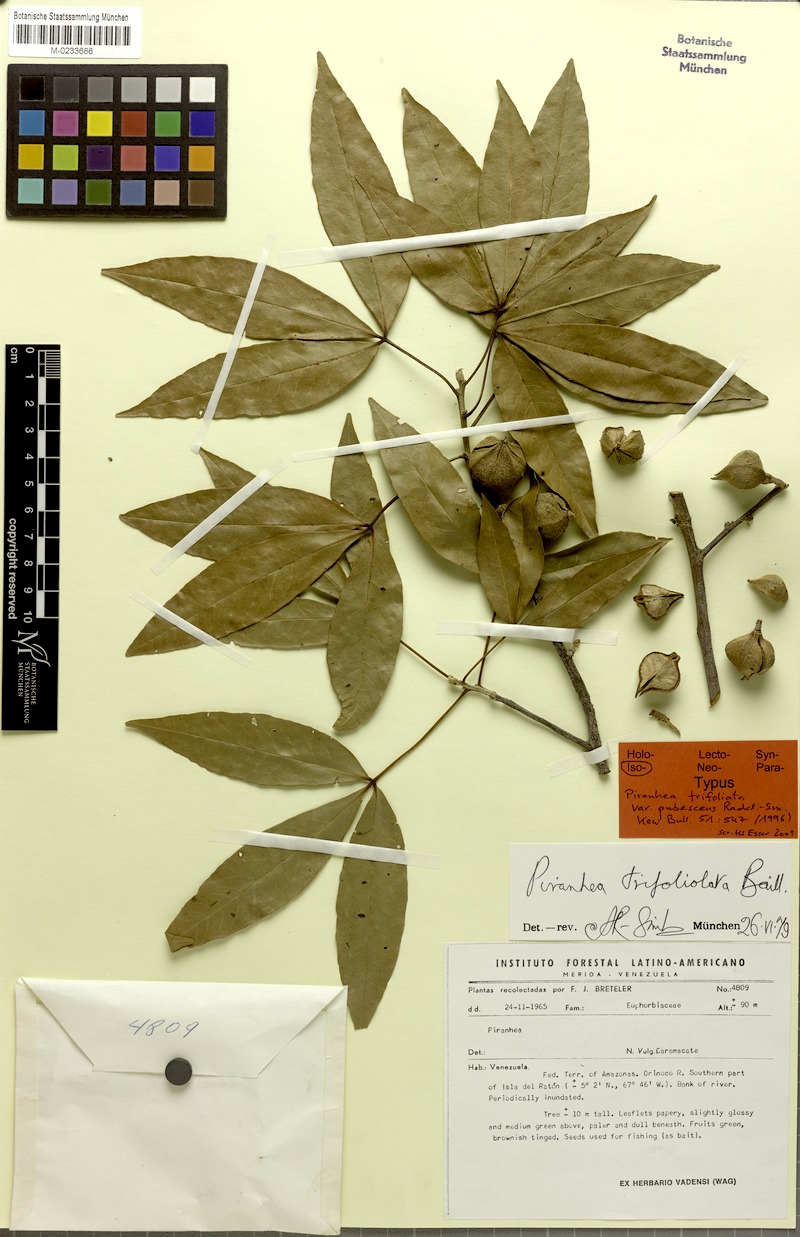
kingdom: Plantae
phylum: Tracheophyta
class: Magnoliopsida
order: Malpighiales
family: Picrodendraceae
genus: Piranhea
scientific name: Piranhea trifoliata
